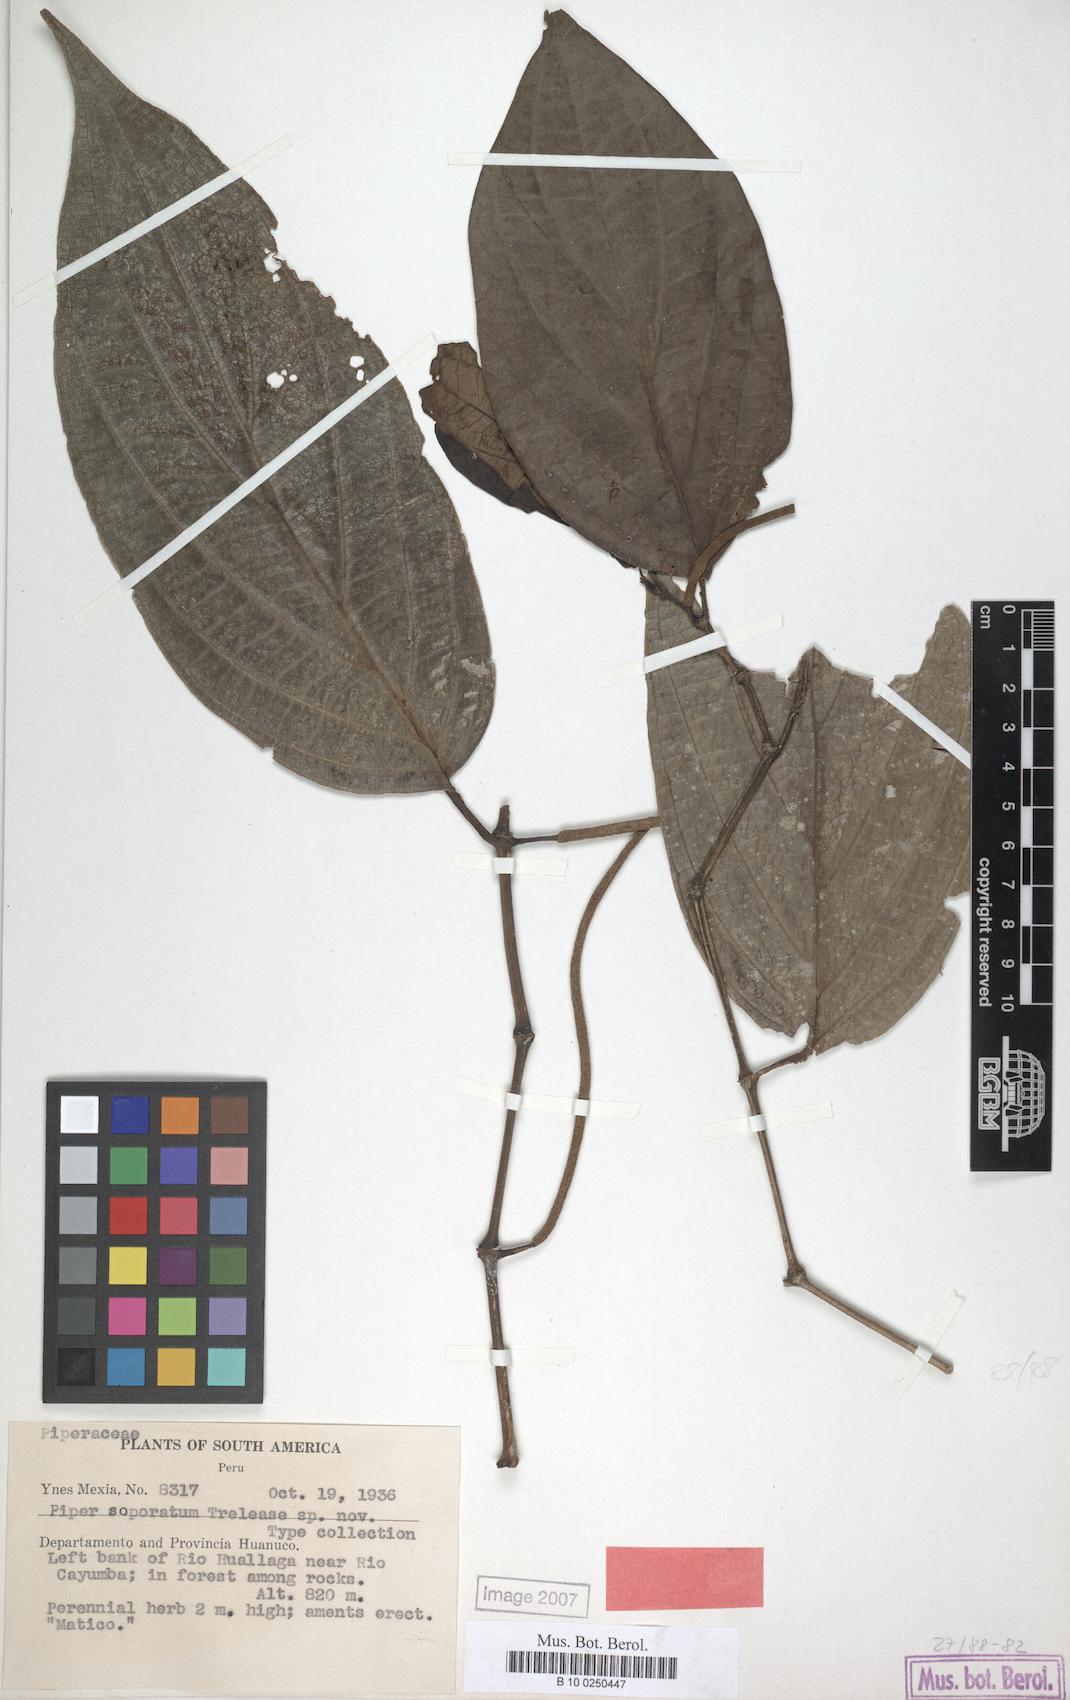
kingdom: Plantae
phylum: Tracheophyta
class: Magnoliopsida
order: Piperales
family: Piperaceae
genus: Piper
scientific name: Piper
